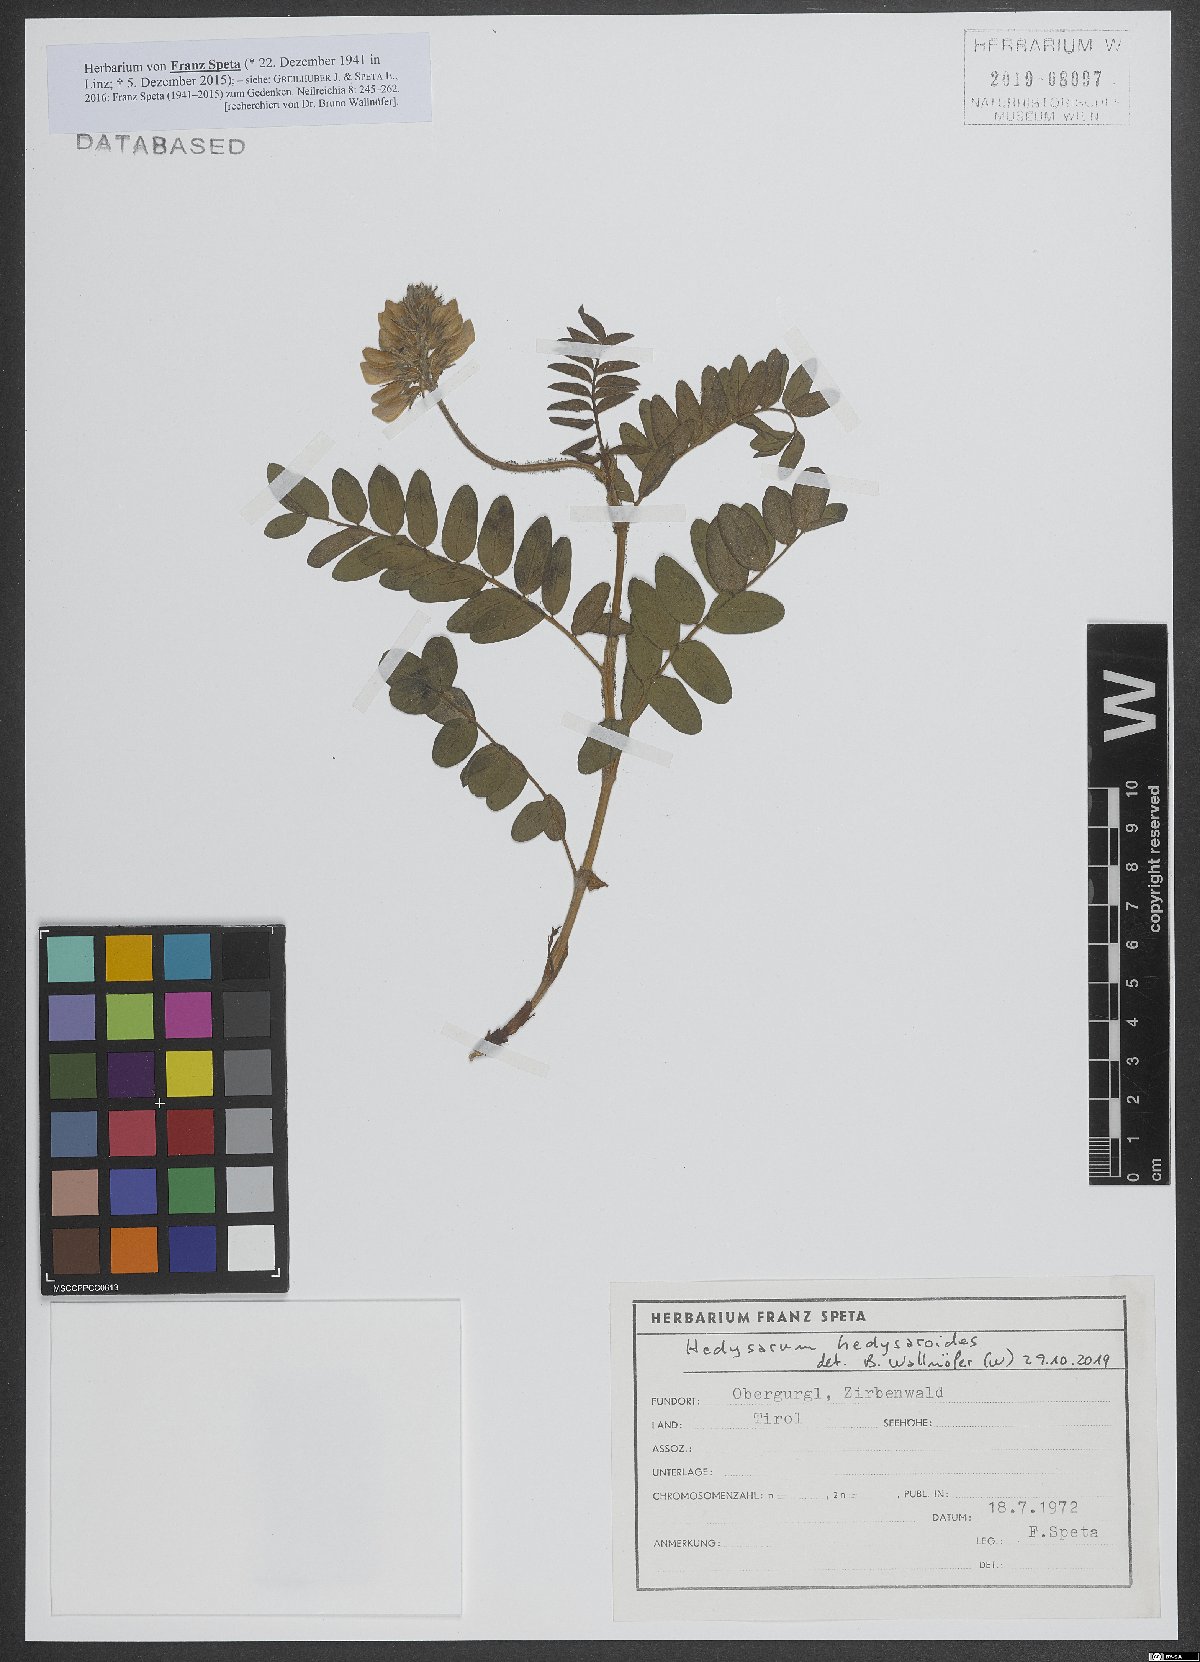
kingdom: Plantae
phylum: Tracheophyta
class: Magnoliopsida
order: Fabales
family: Fabaceae
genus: Hedysarum
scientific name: Hedysarum hedysaroides
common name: Alpine french-honeysuckle
